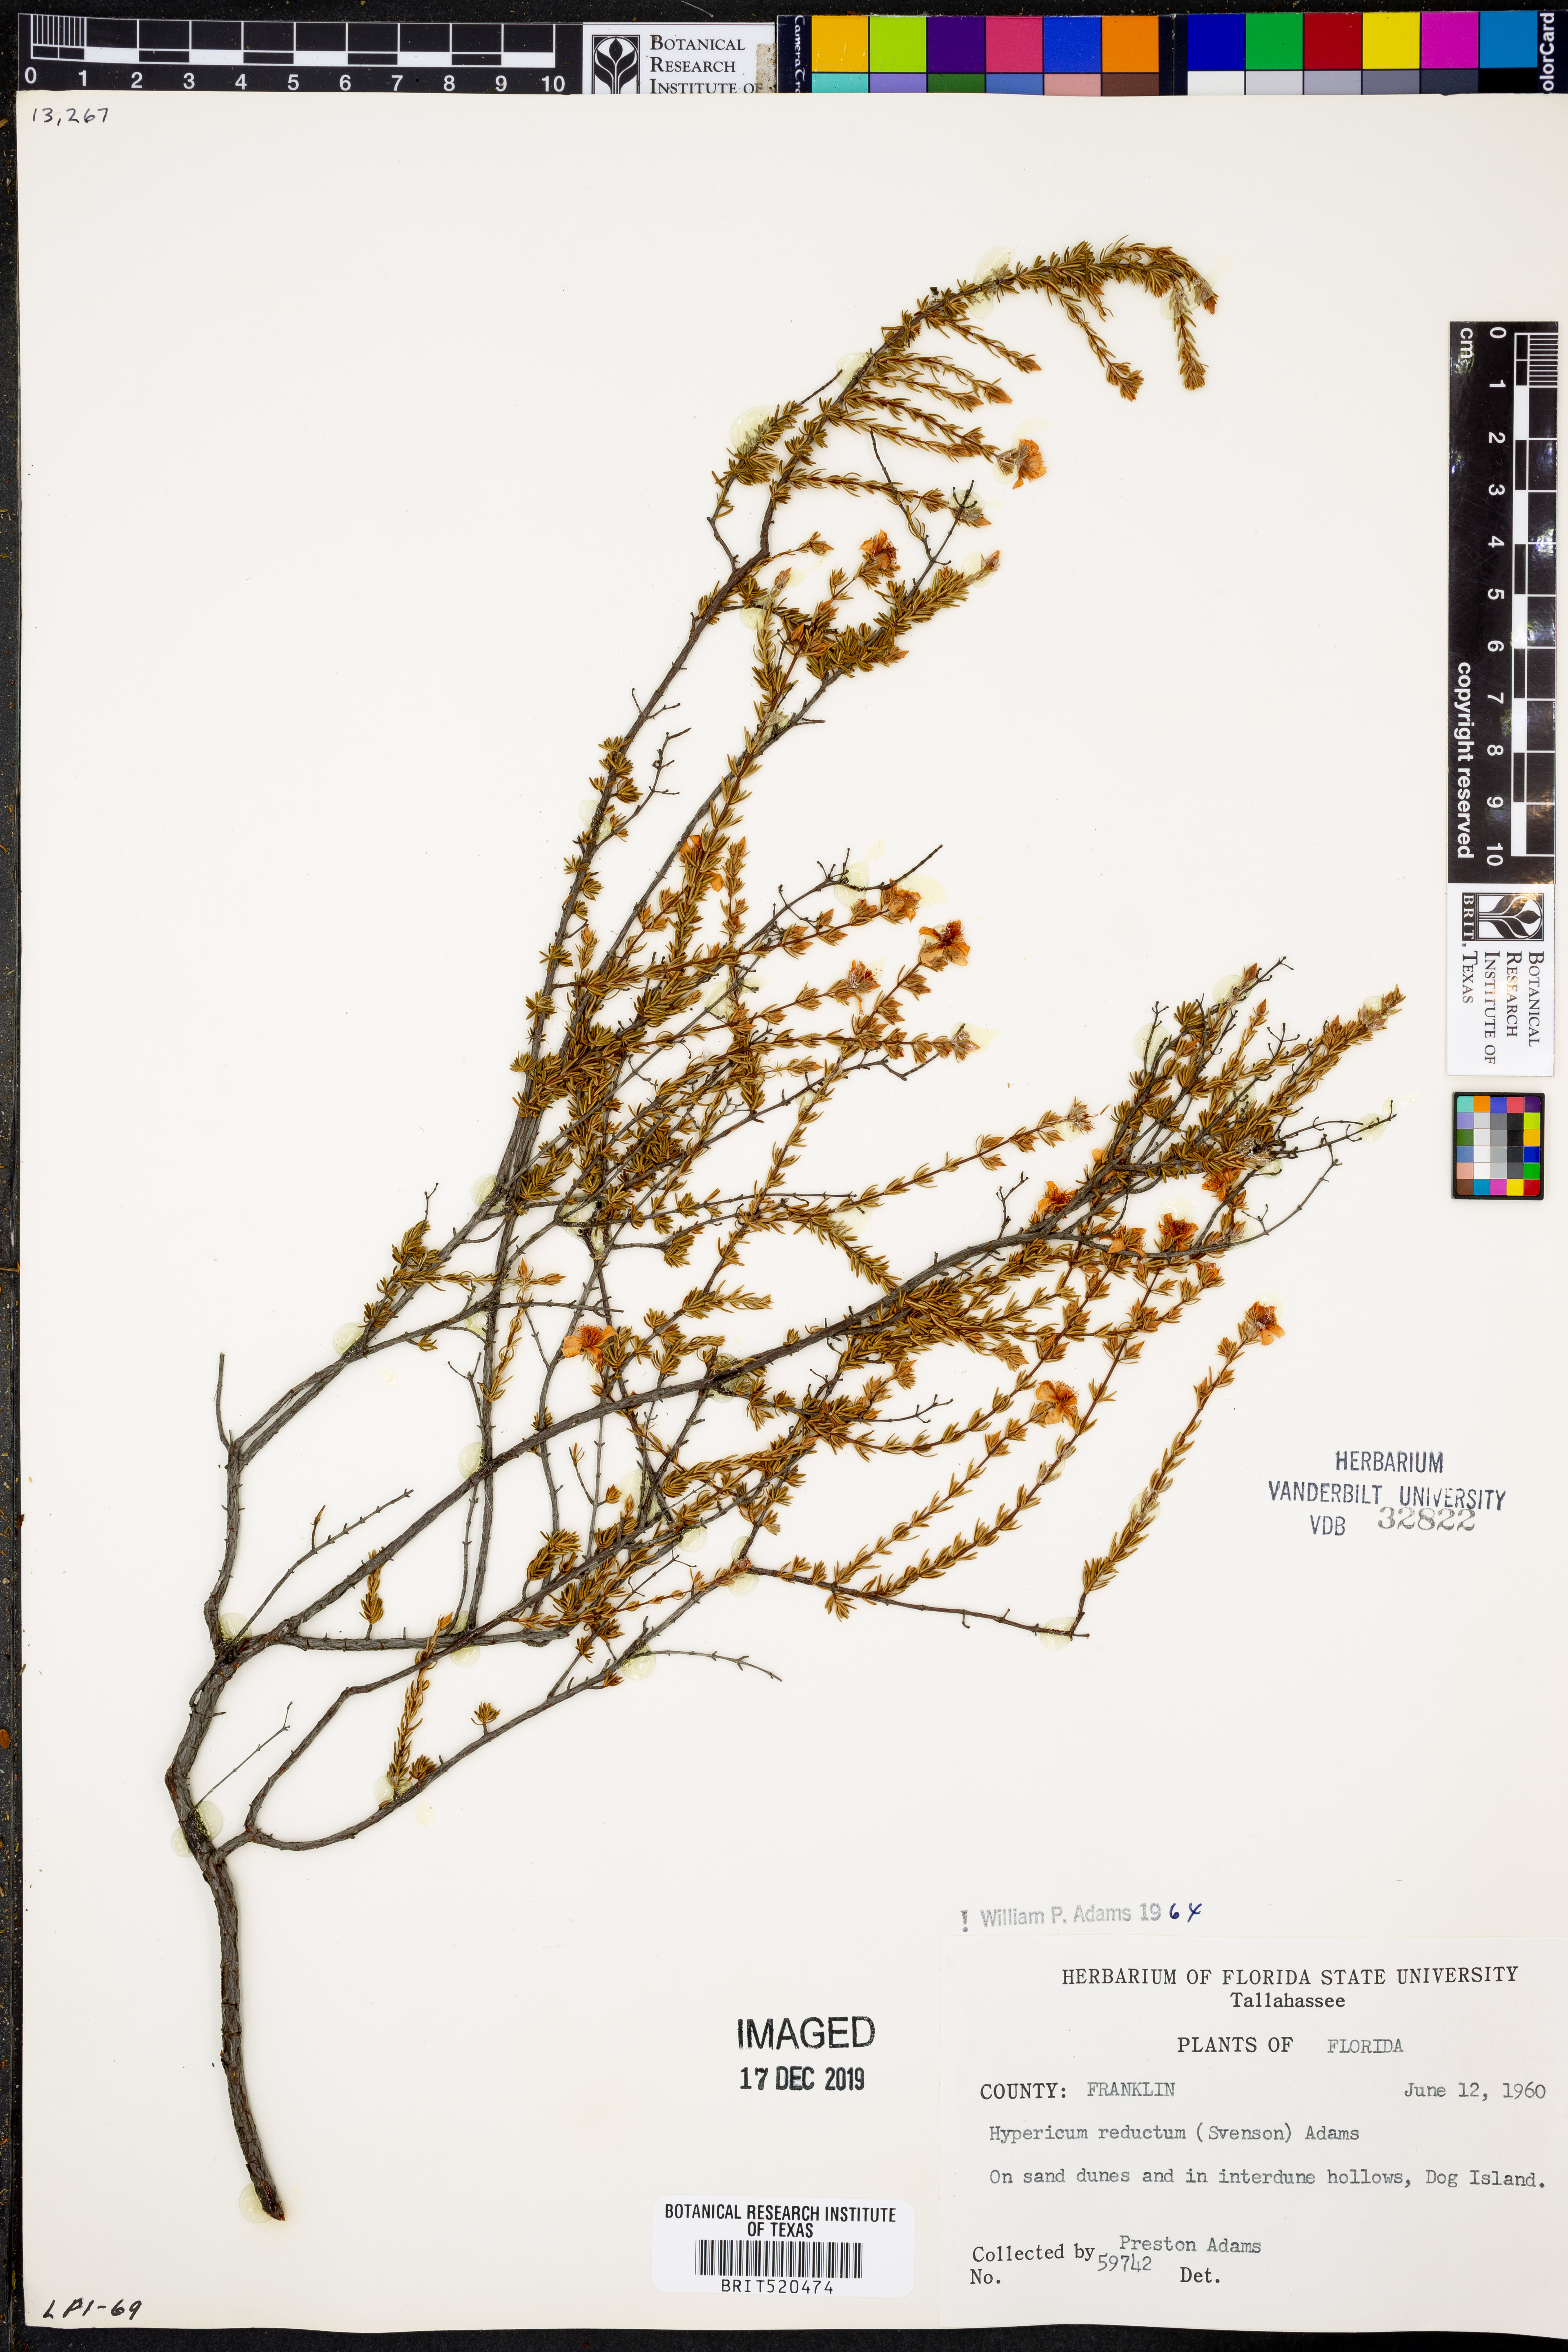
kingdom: Plantae
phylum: Tracheophyta
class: Magnoliopsida
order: Malpighiales
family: Hypericaceae
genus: Hypericum
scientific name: Hypericum tenuifolium
